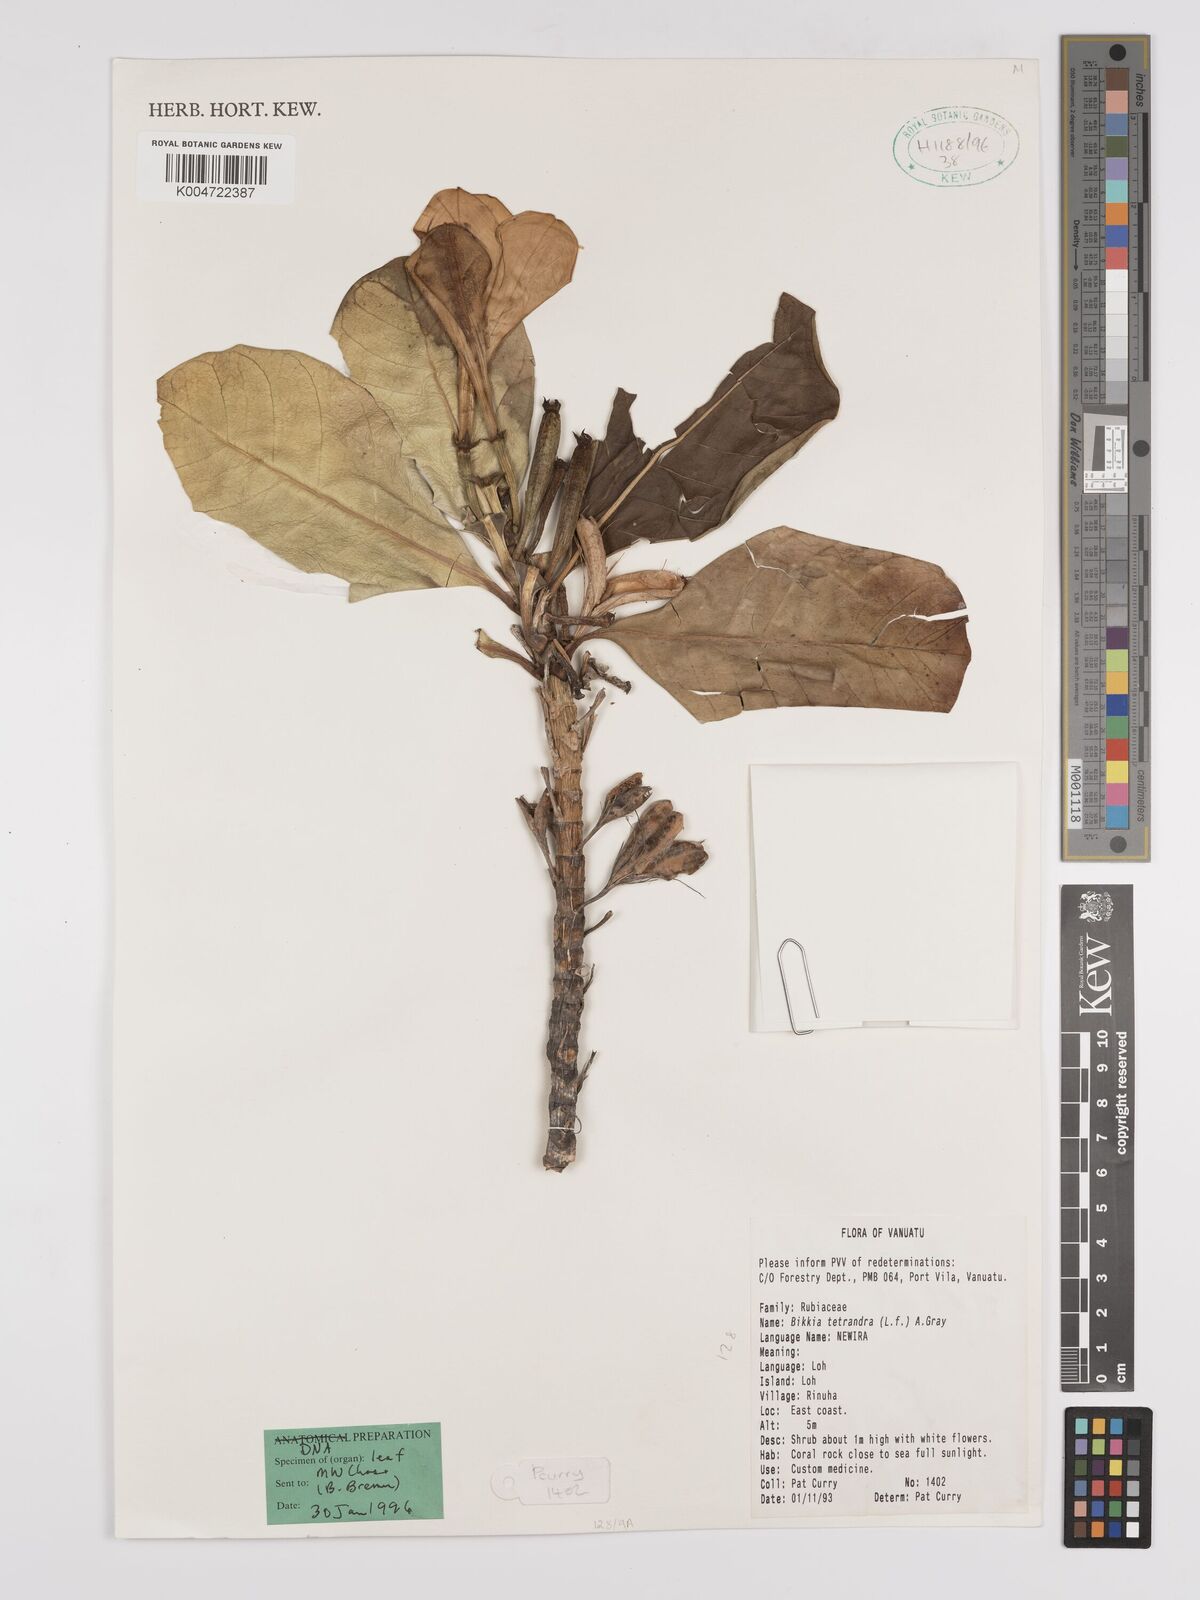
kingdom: Plantae
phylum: Tracheophyta
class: Magnoliopsida
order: Gentianales
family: Rubiaceae
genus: Bikkia
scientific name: Bikkia
